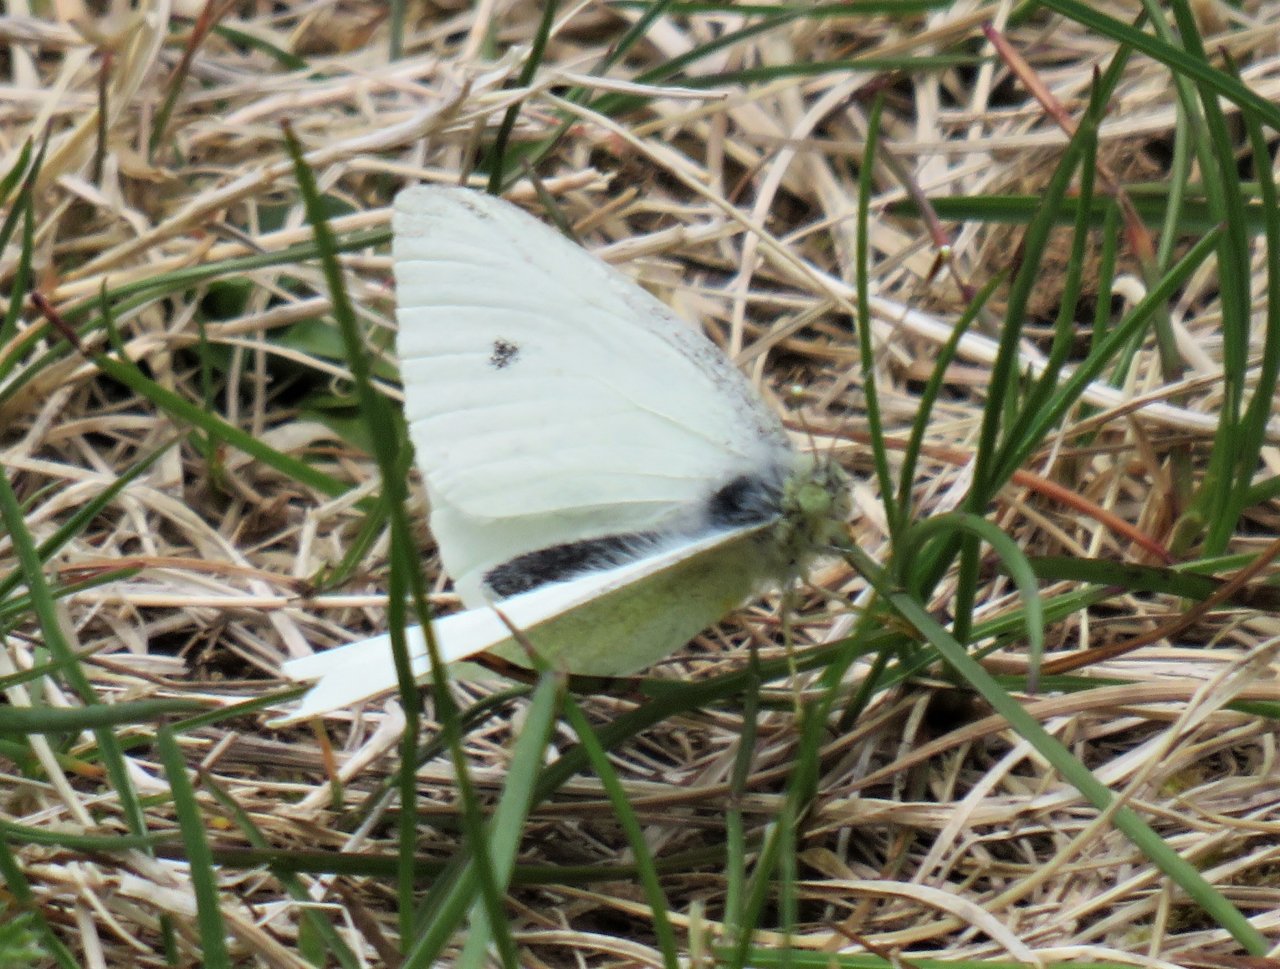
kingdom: Animalia
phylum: Arthropoda
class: Insecta
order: Lepidoptera
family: Pieridae
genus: Pieris
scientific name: Pieris rapae
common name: Cabbage White
